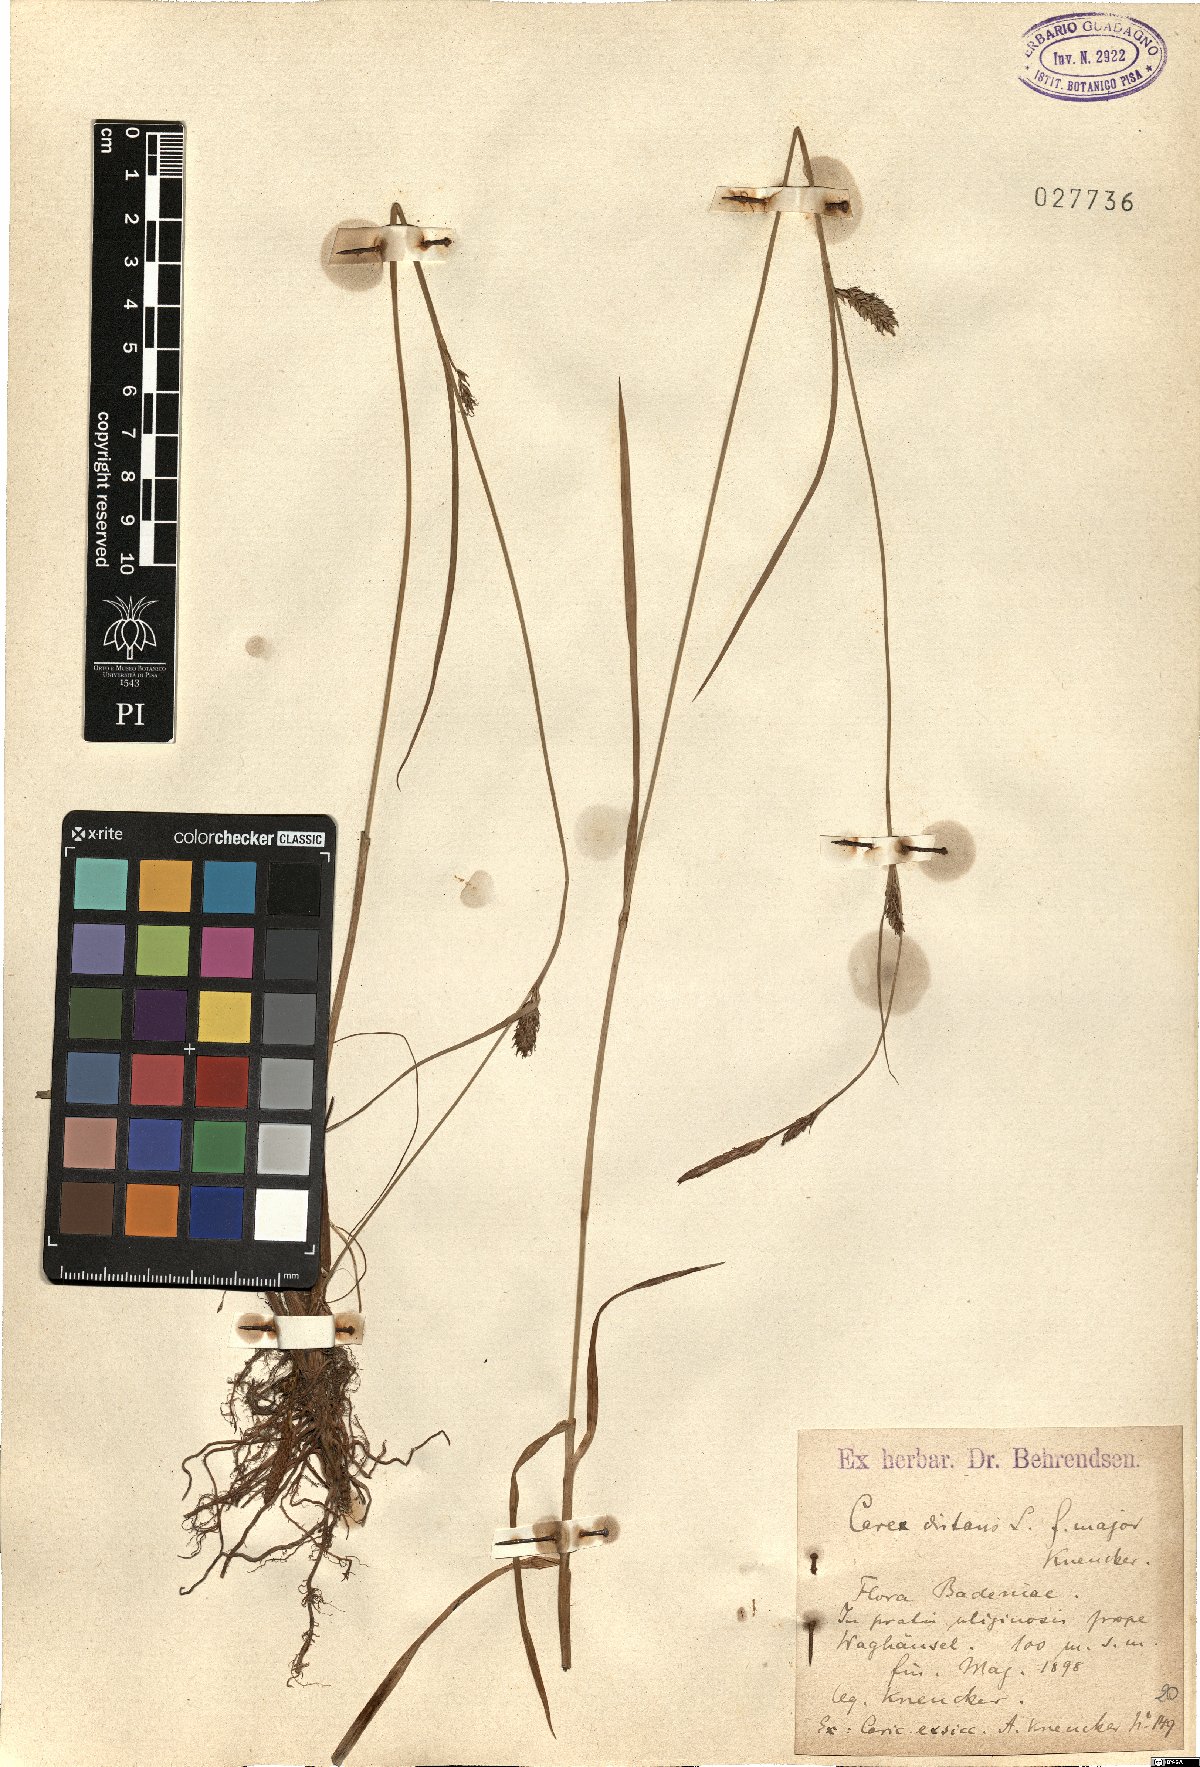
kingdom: Plantae
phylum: Tracheophyta
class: Liliopsida
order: Poales
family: Cyperaceae
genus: Carex
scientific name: Carex distans
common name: Distant sedge
